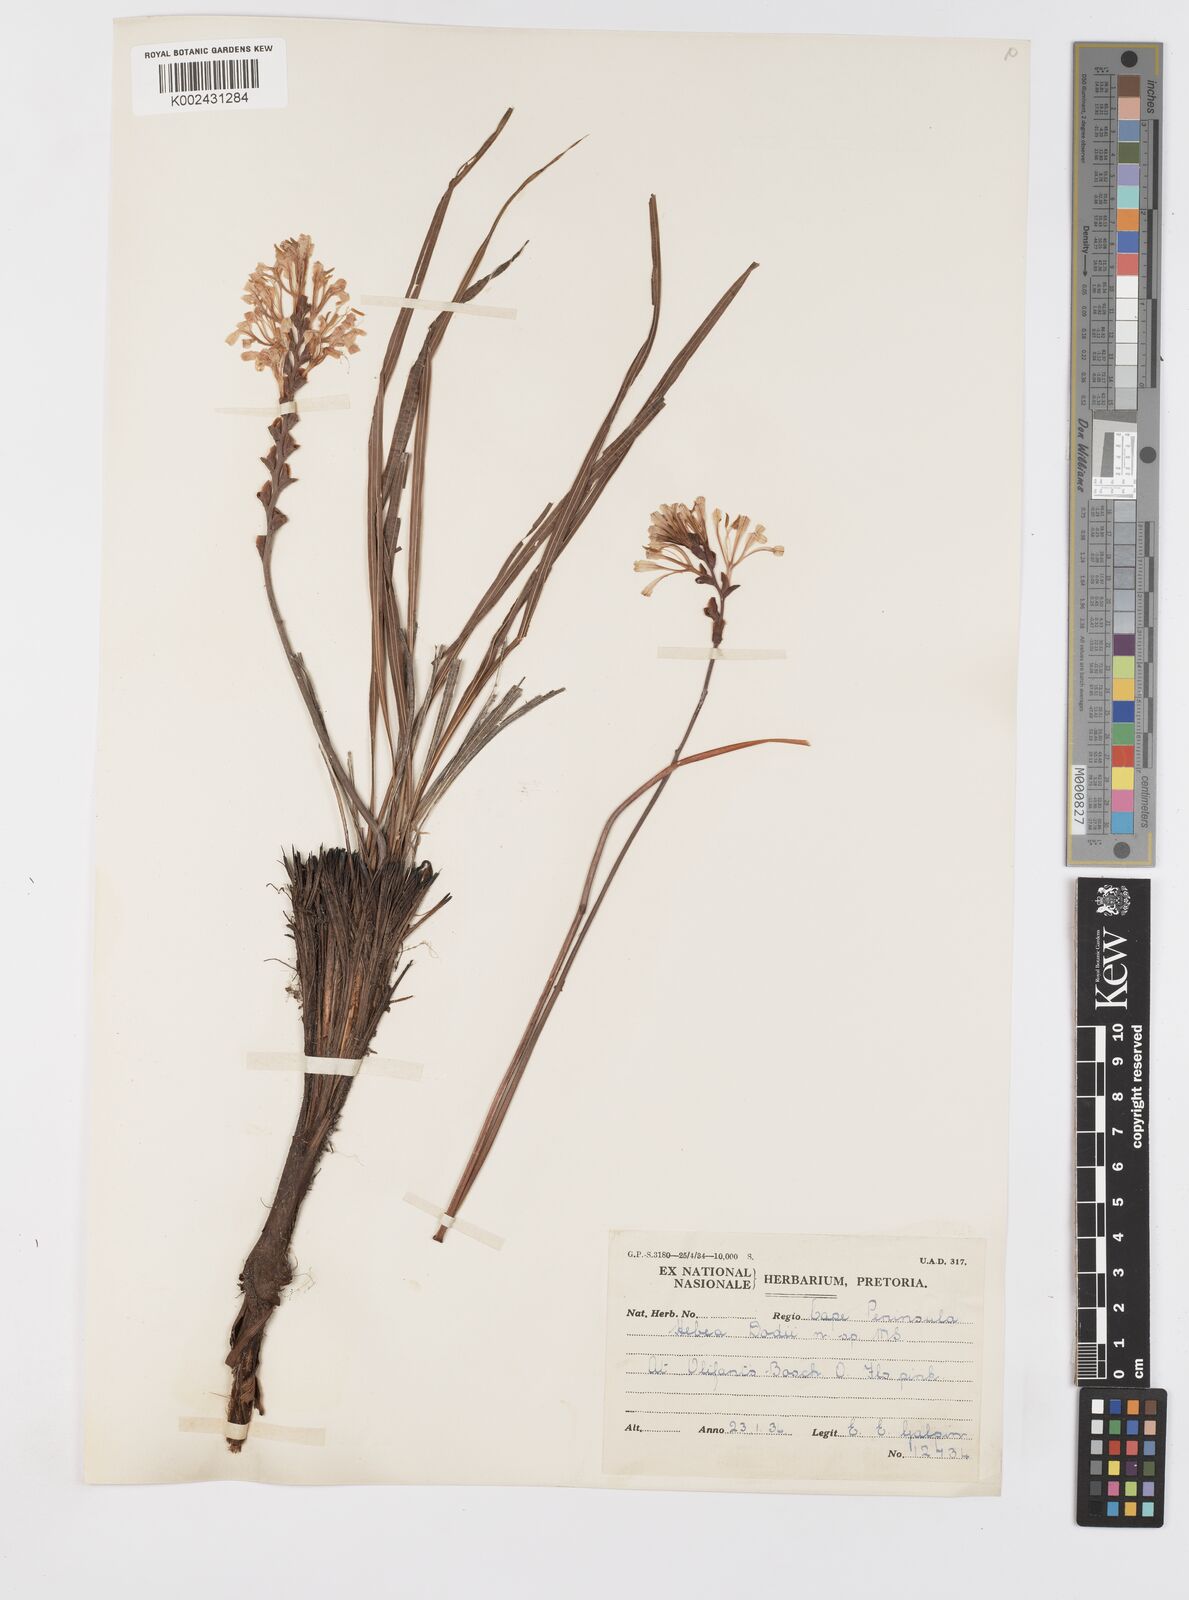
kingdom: Plantae
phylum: Tracheophyta
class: Liliopsida
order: Asparagales
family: Iridaceae
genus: Tritoniopsis
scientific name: Tritoniopsis dodii
